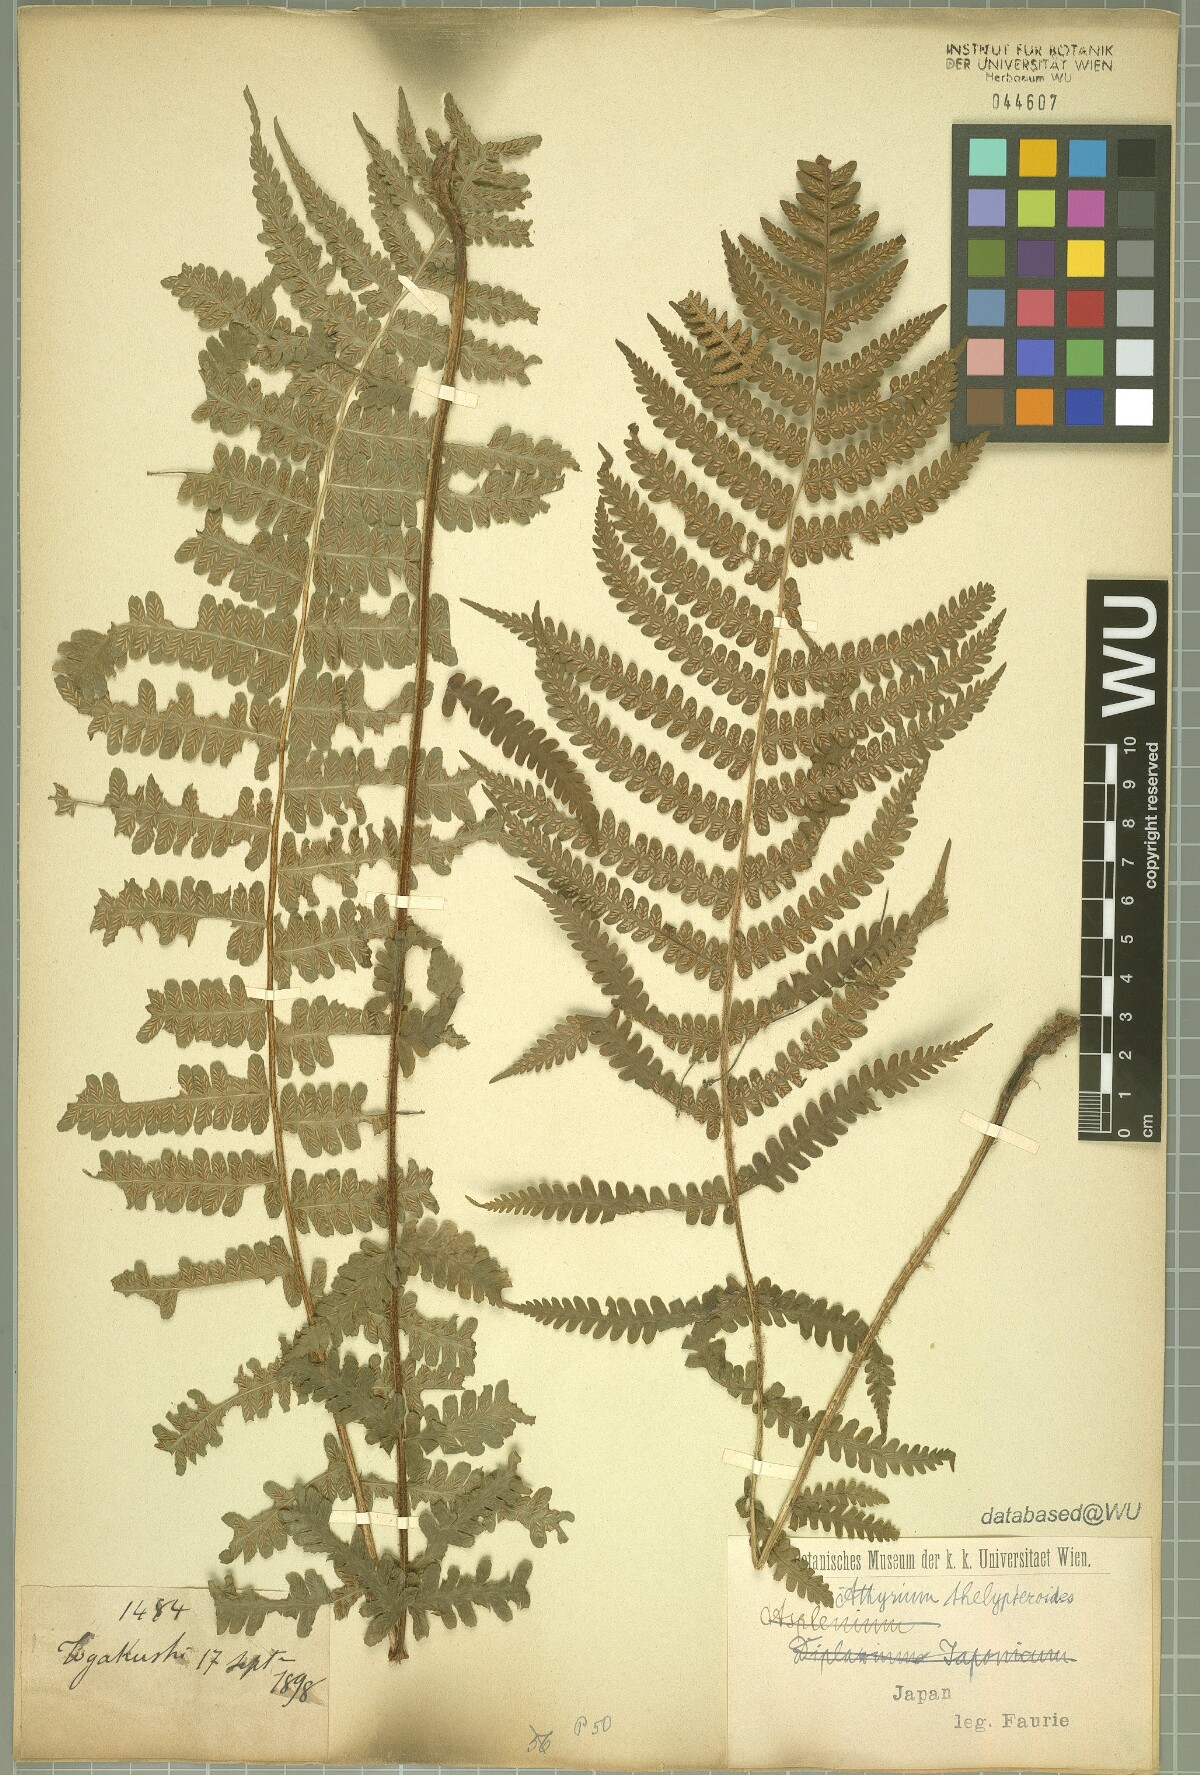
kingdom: Plantae
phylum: Tracheophyta
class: Polypodiopsida
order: Polypodiales
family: Athyriaceae
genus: Deparia
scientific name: Deparia acrostichoides
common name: Silver false spleenwort
